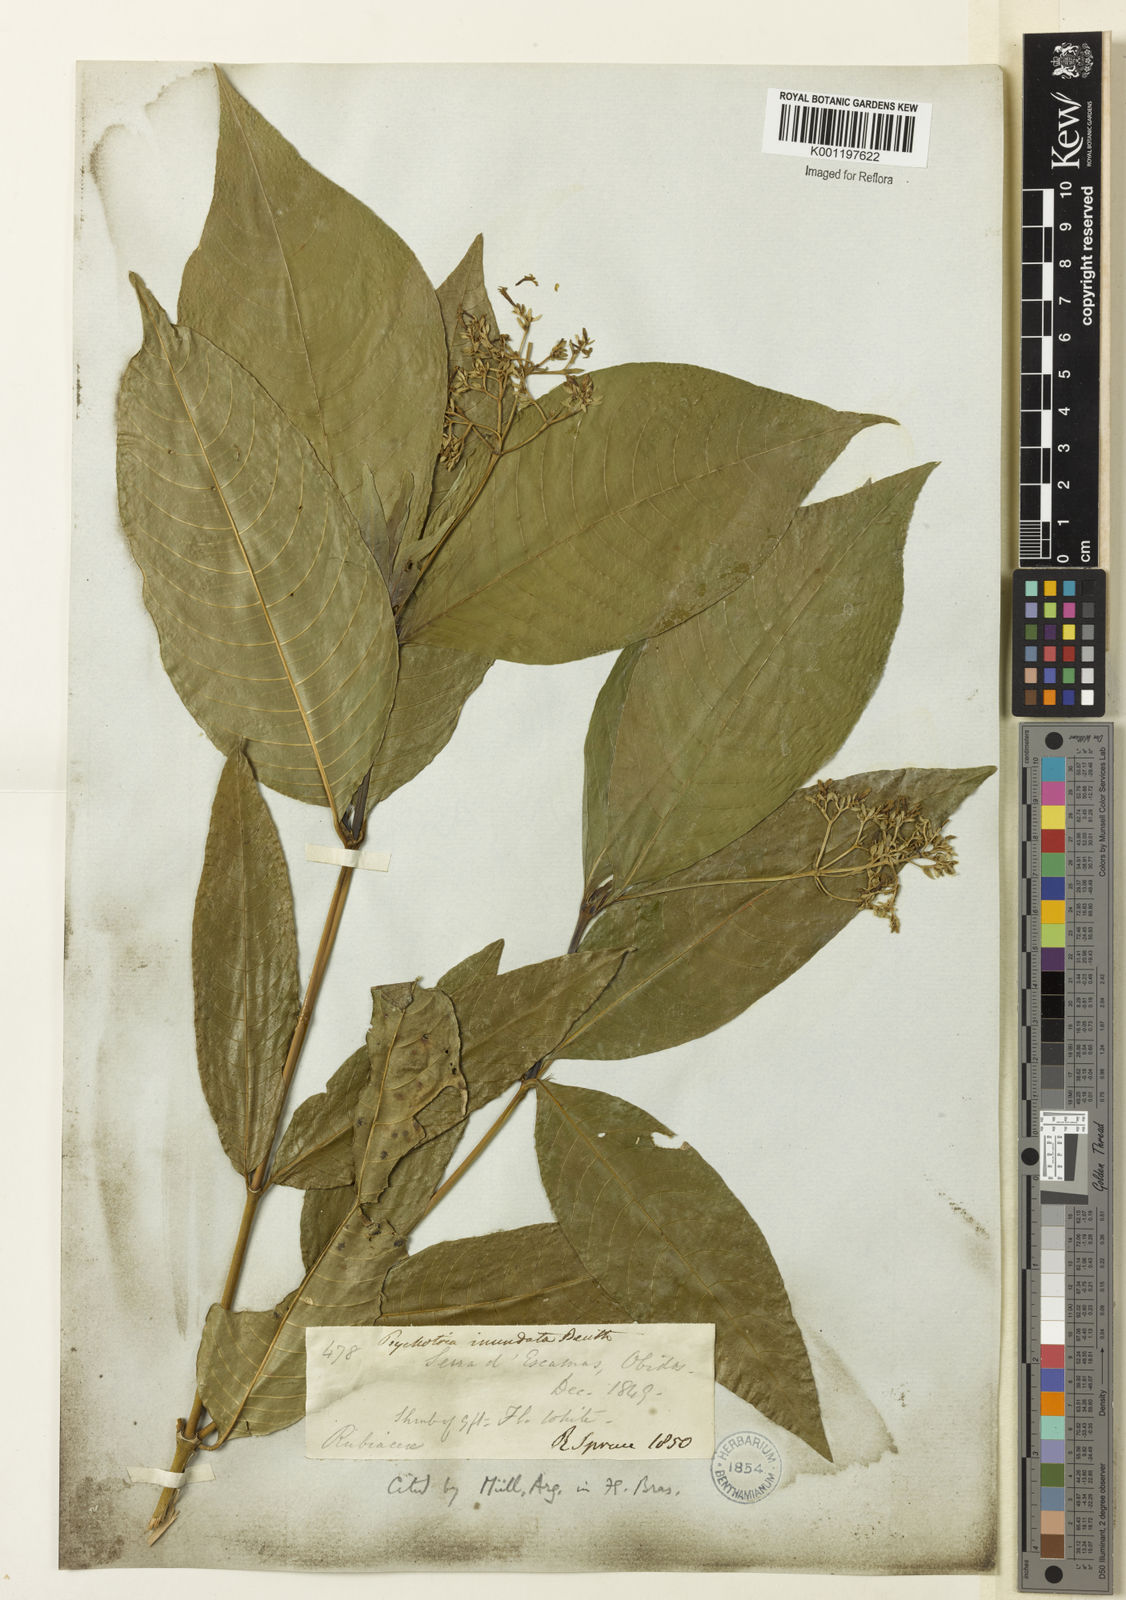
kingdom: Plantae
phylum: Tracheophyta
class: Magnoliopsida
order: Gentianales
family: Rubiaceae
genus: Palicourea
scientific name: Palicourea violacea
